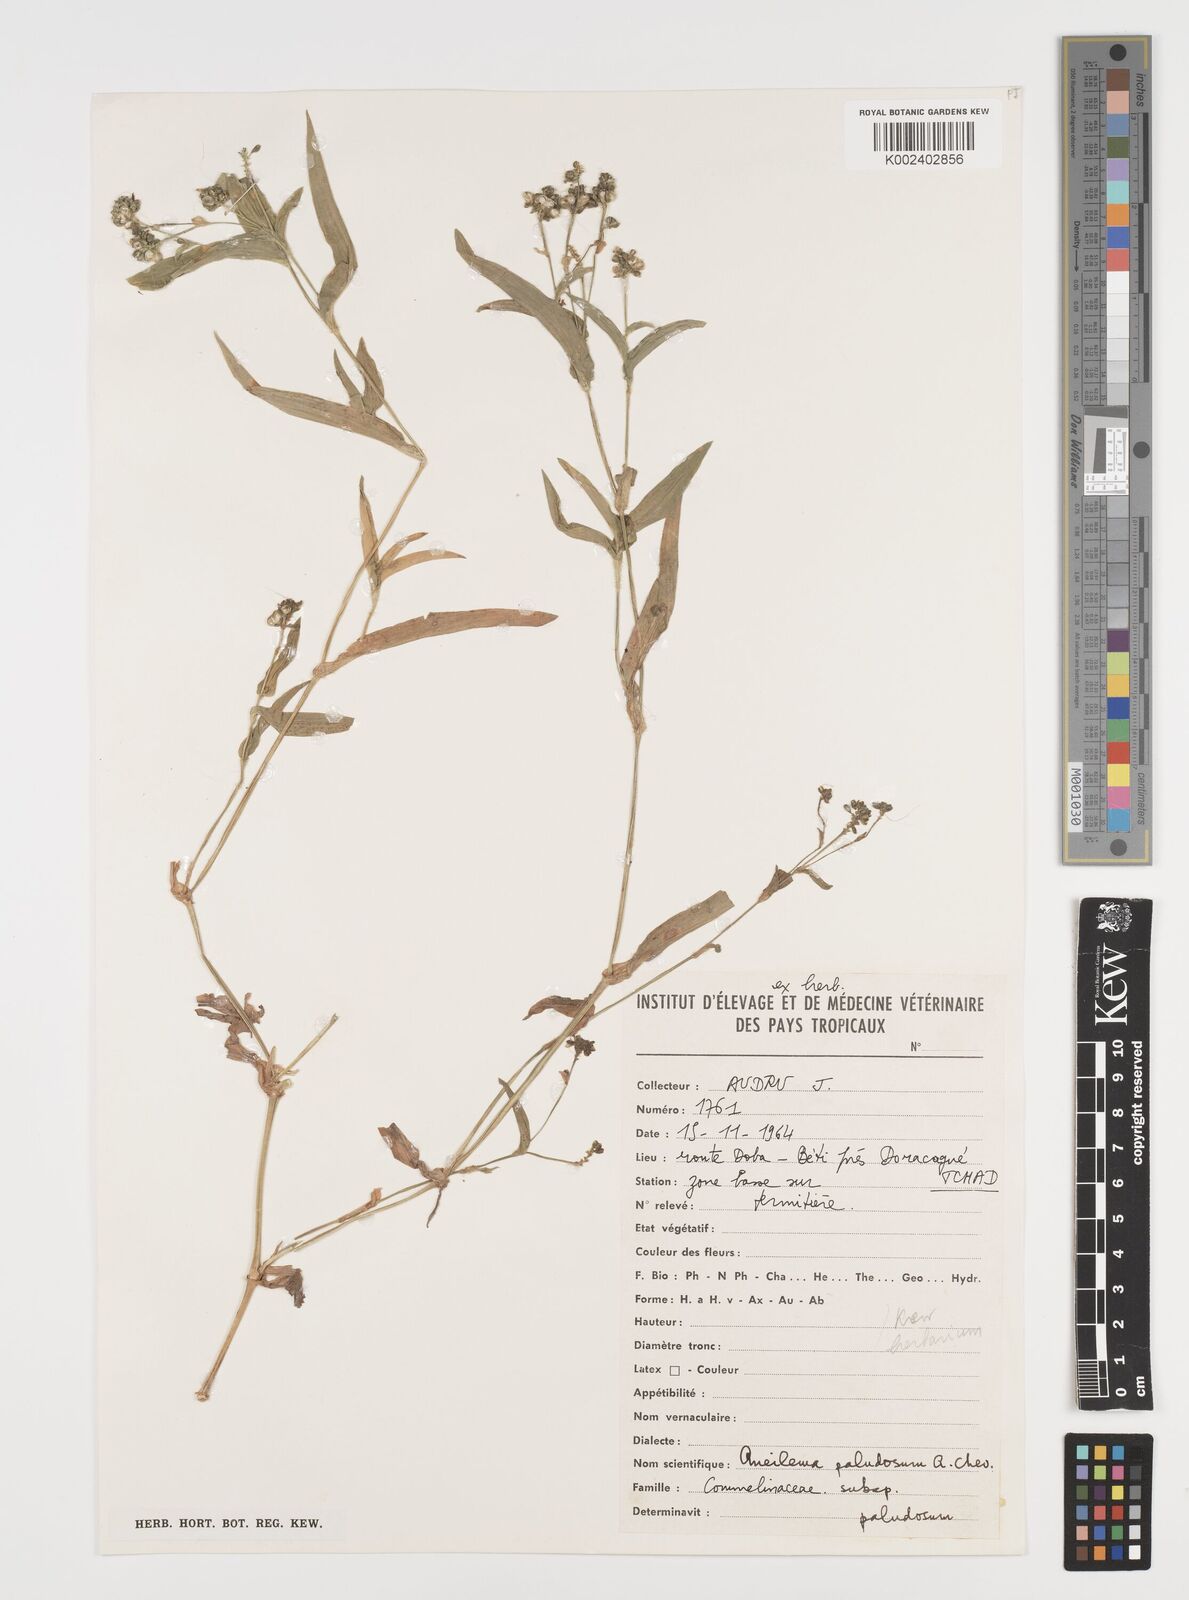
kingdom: Plantae
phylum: Tracheophyta
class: Liliopsida
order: Commelinales
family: Commelinaceae
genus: Aneilema
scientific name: Aneilema paludosum
